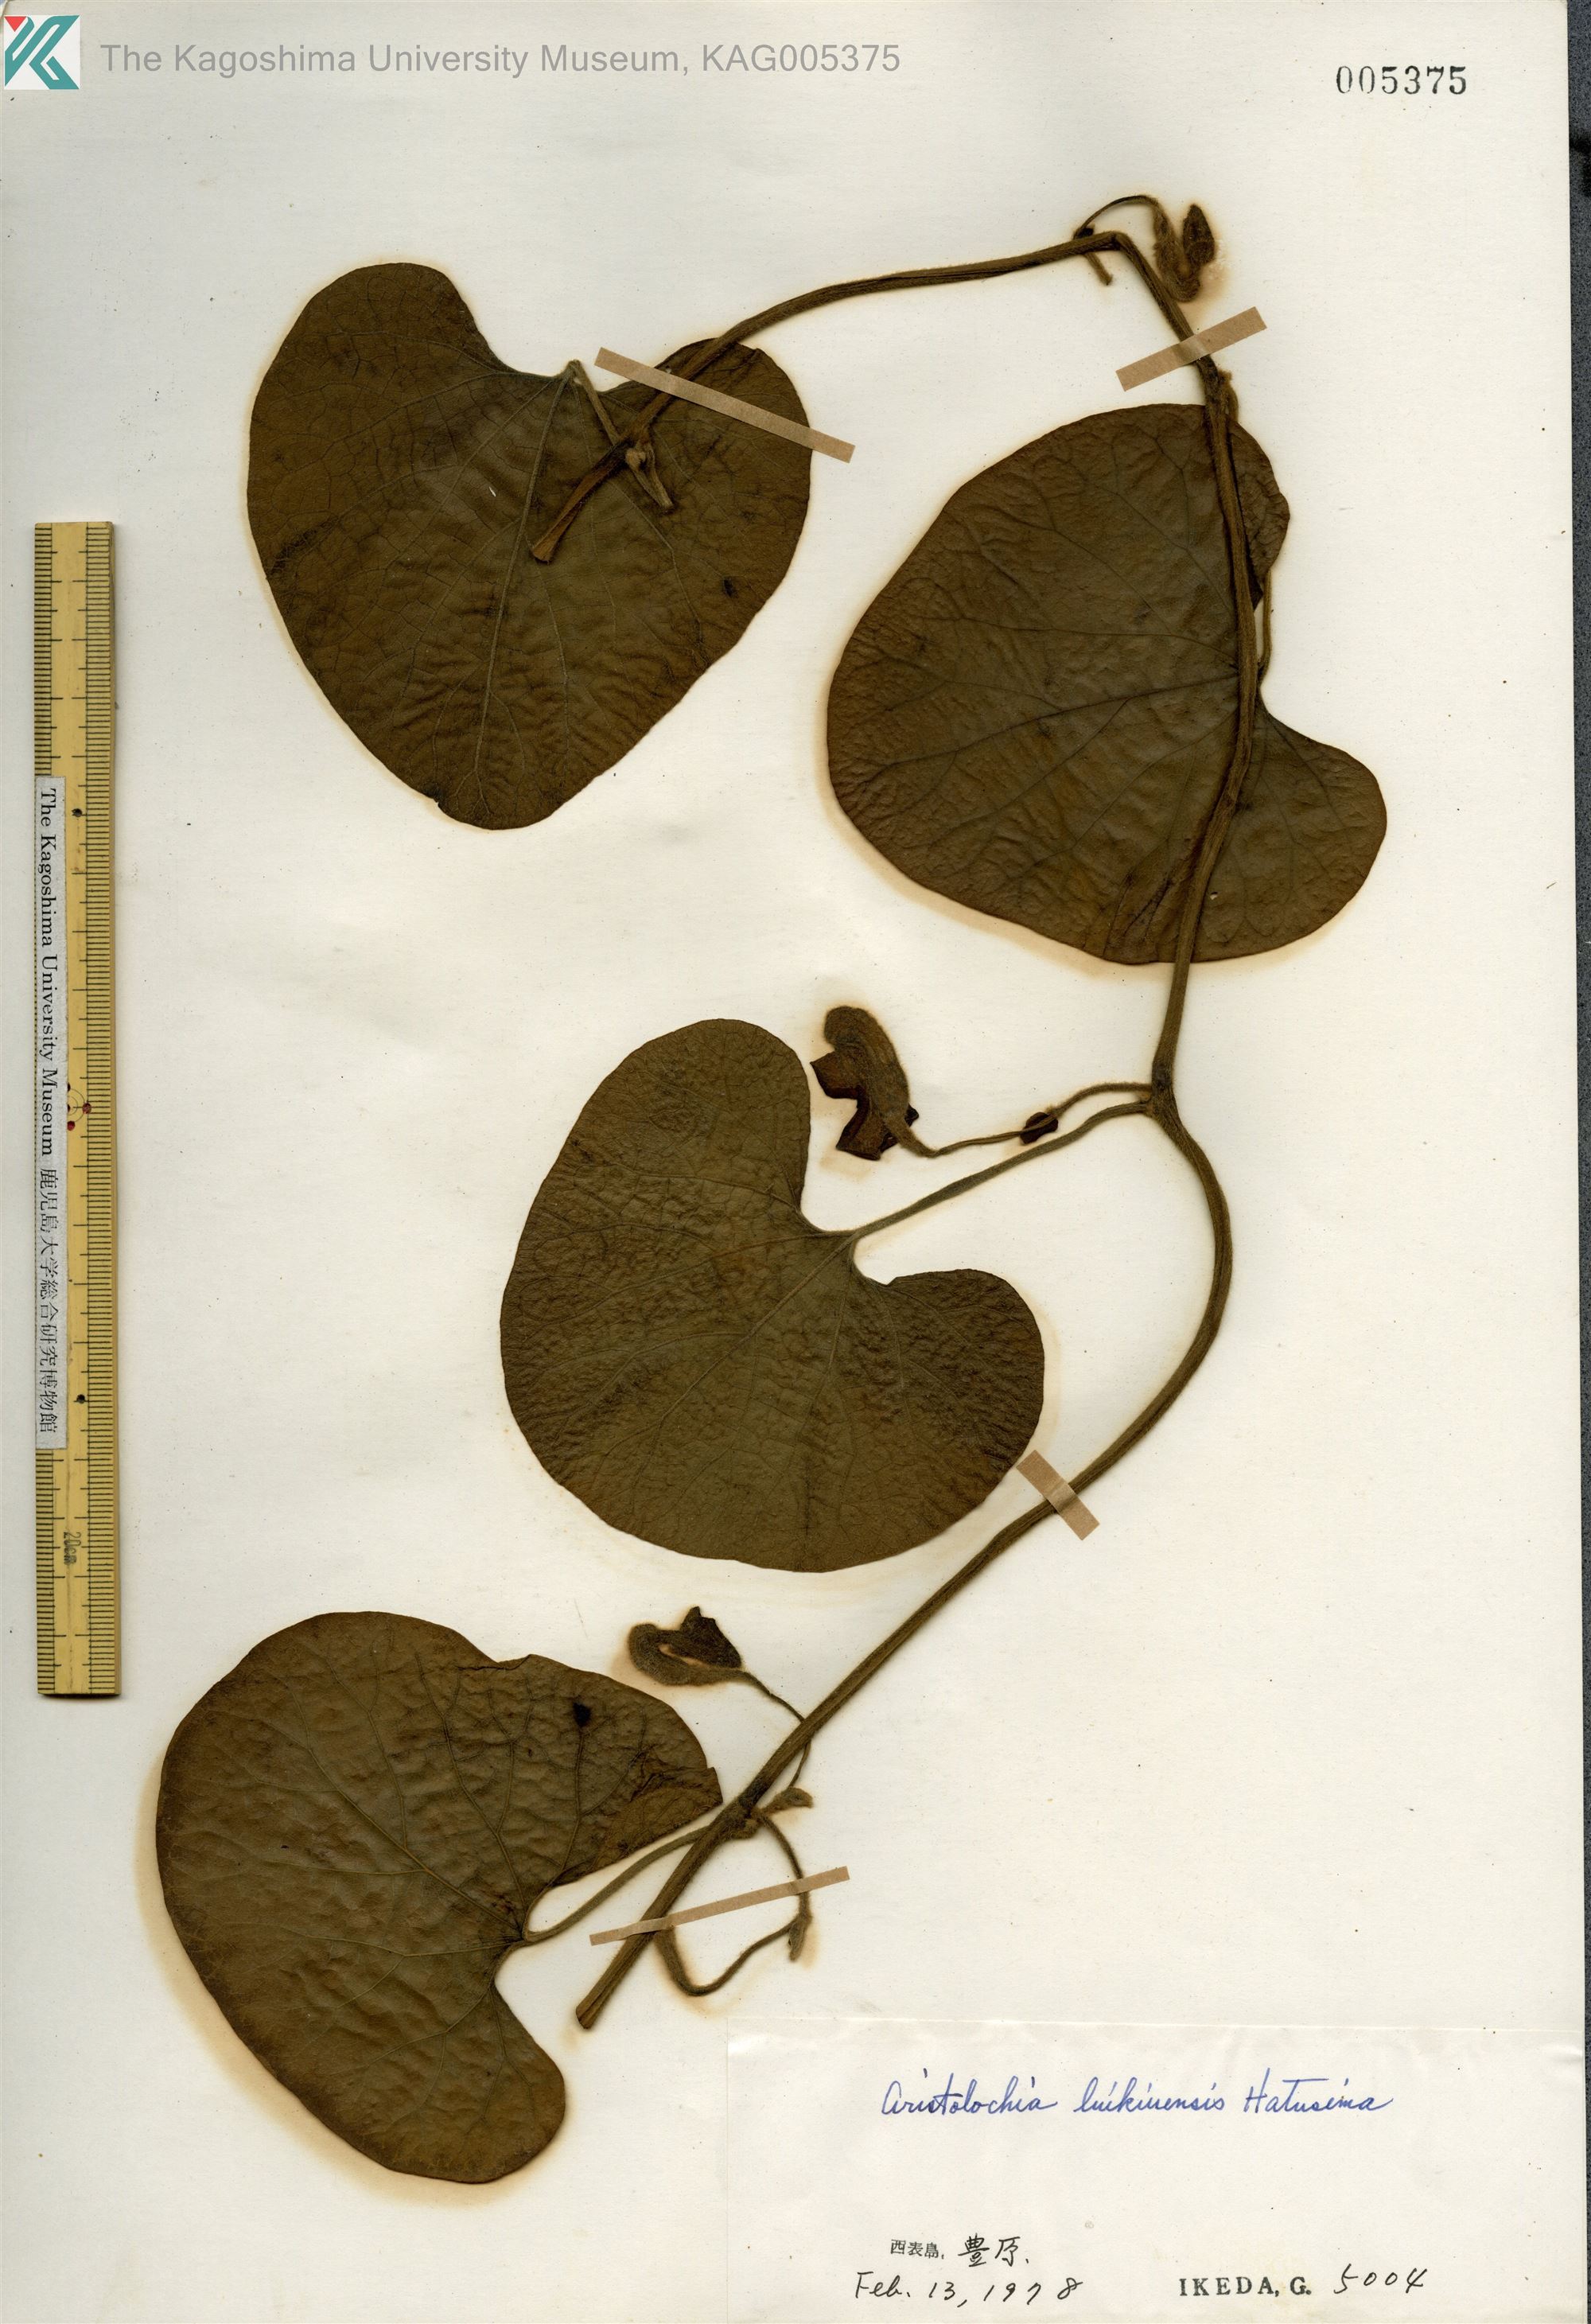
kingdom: Plantae
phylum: Tracheophyta
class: Magnoliopsida
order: Piperales
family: Aristolochiaceae
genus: Isotrema
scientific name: Isotrema liukiuense
